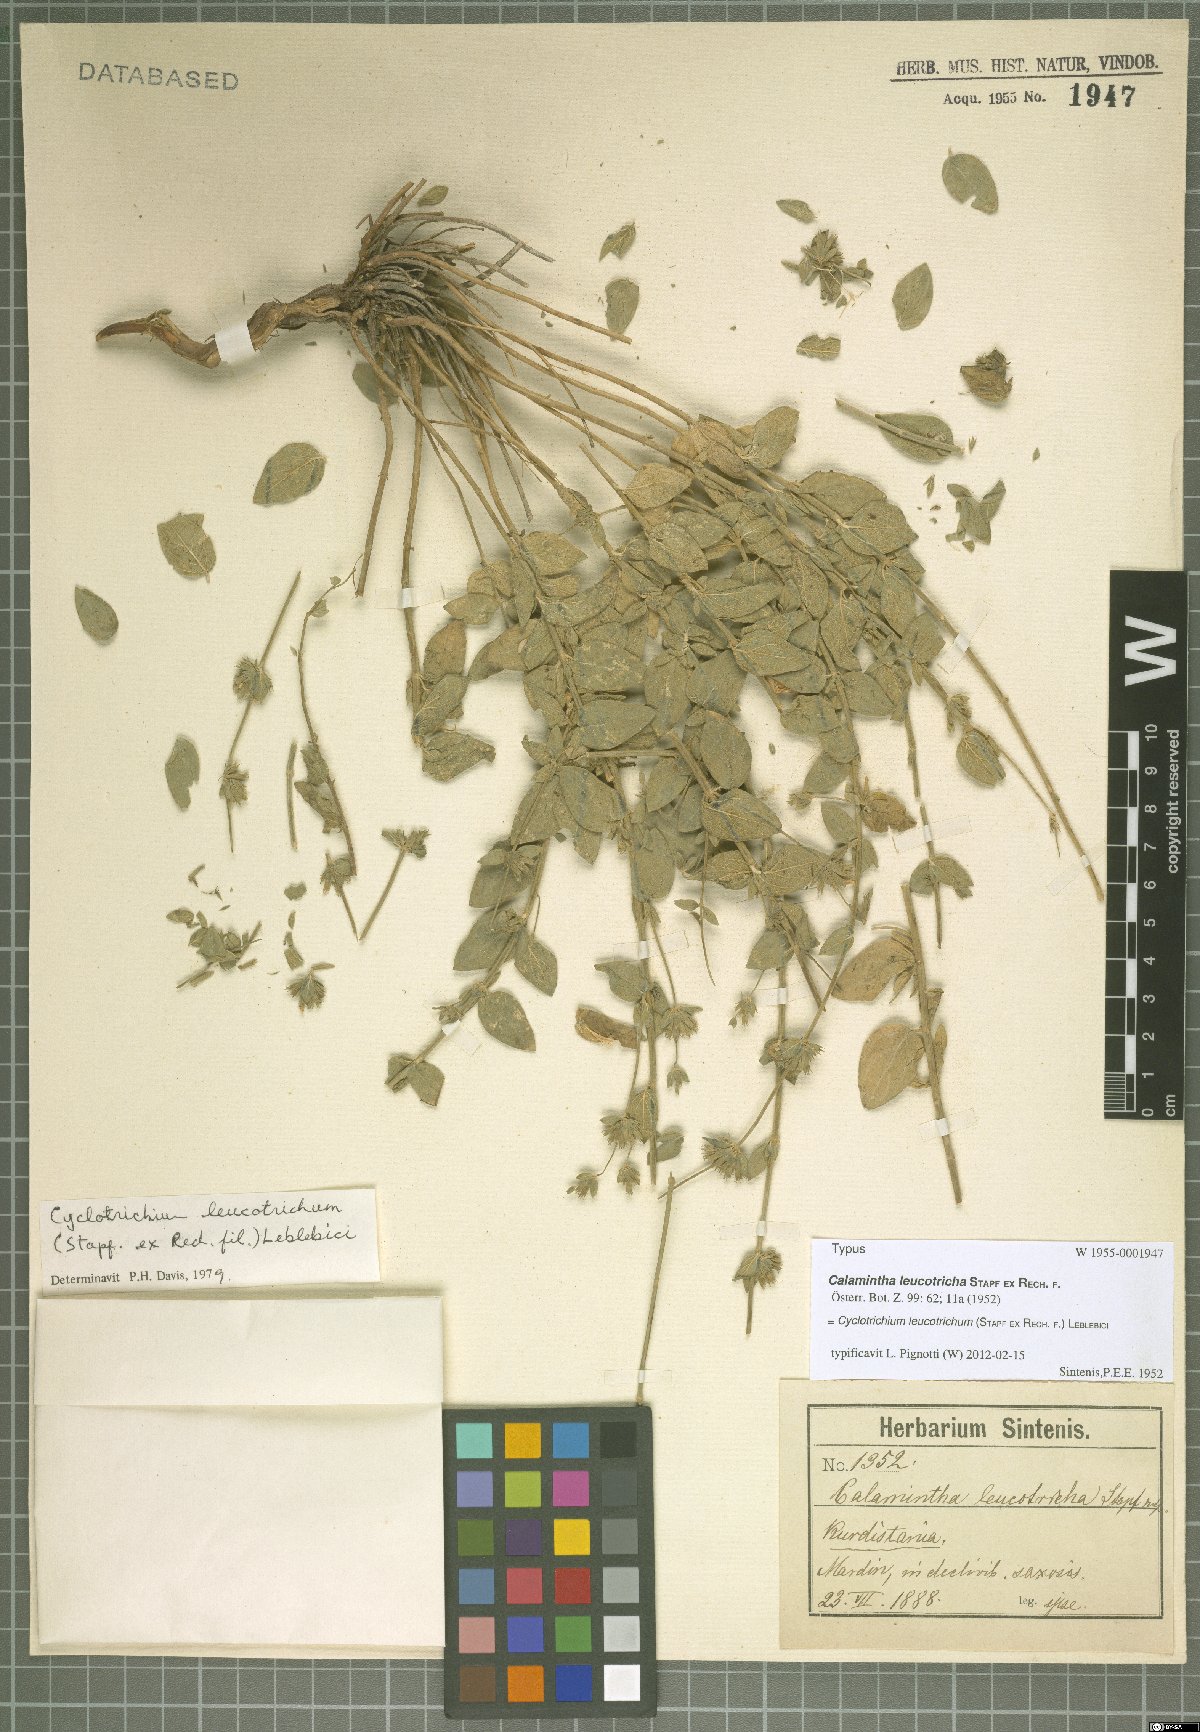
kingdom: Plantae
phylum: Tracheophyta
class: Magnoliopsida
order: Lamiales
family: Lamiaceae
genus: Cyclotrichium
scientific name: Cyclotrichium leucotrichum
